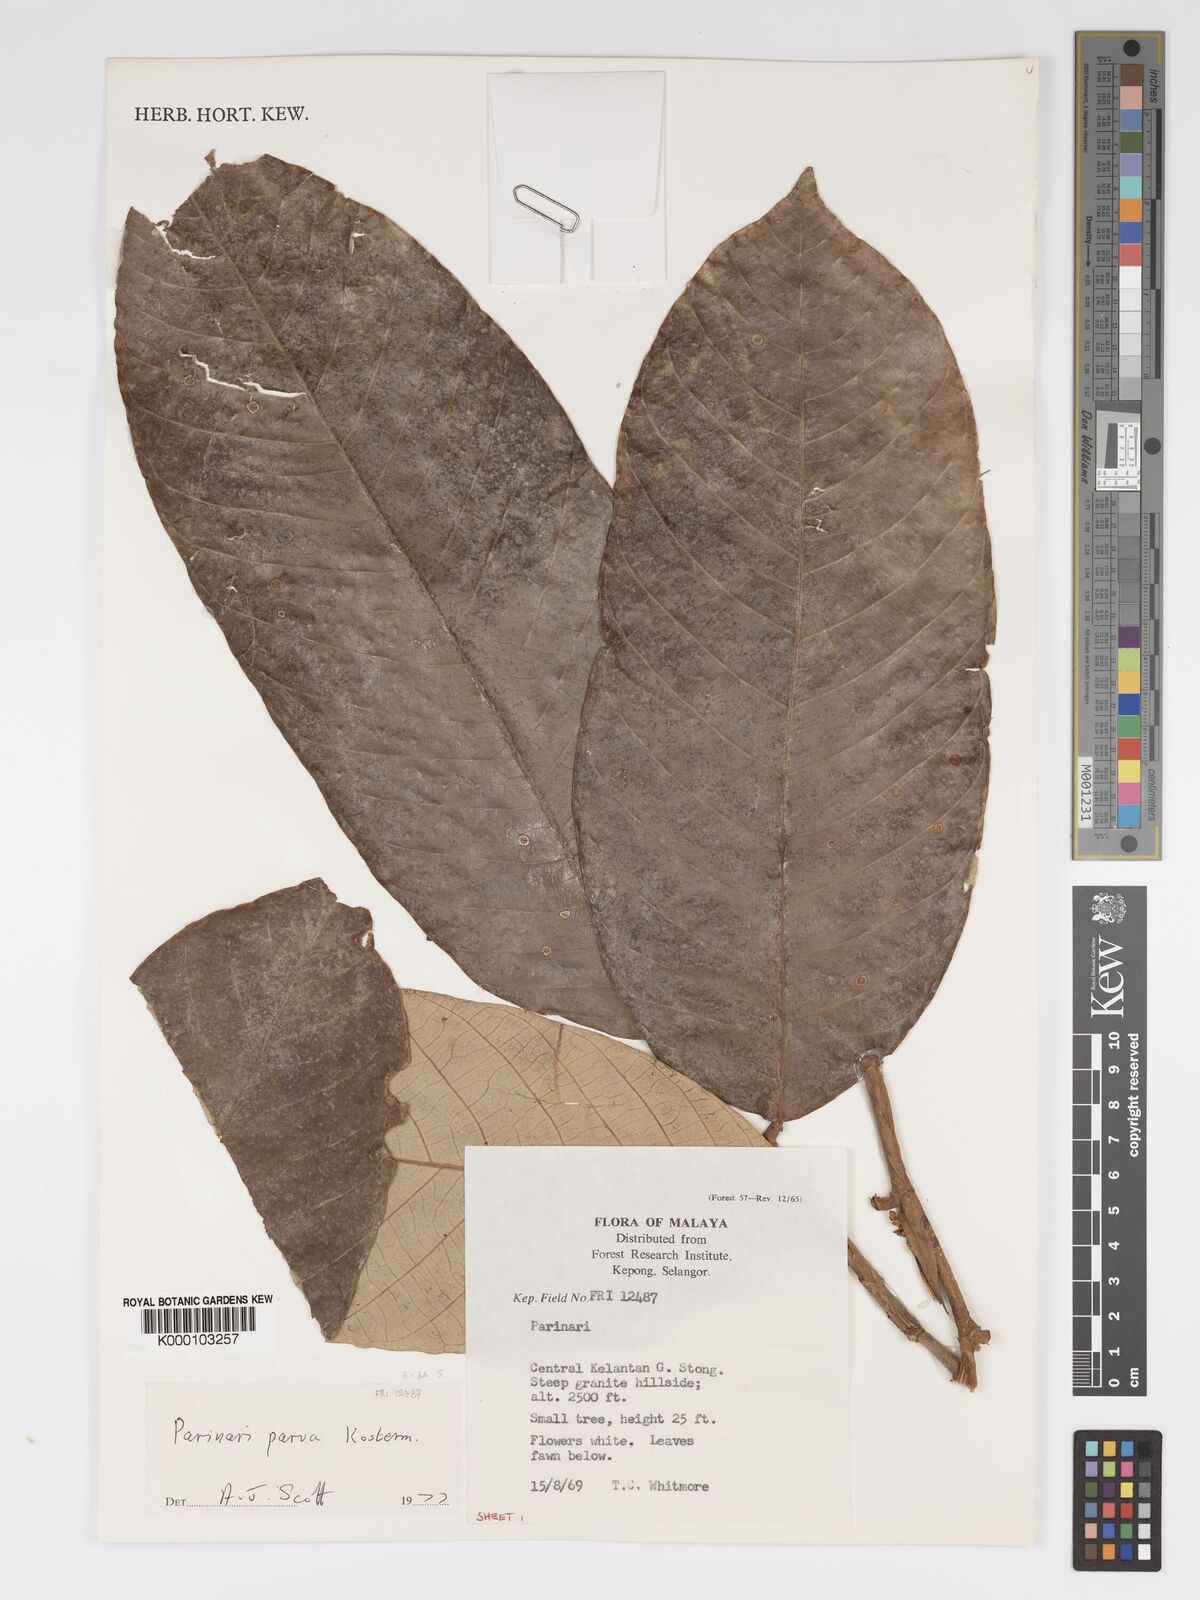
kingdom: Plantae
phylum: Tracheophyta
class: Magnoliopsida
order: Malpighiales
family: Chrysobalanaceae
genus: Parinari
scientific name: Parinari parva
